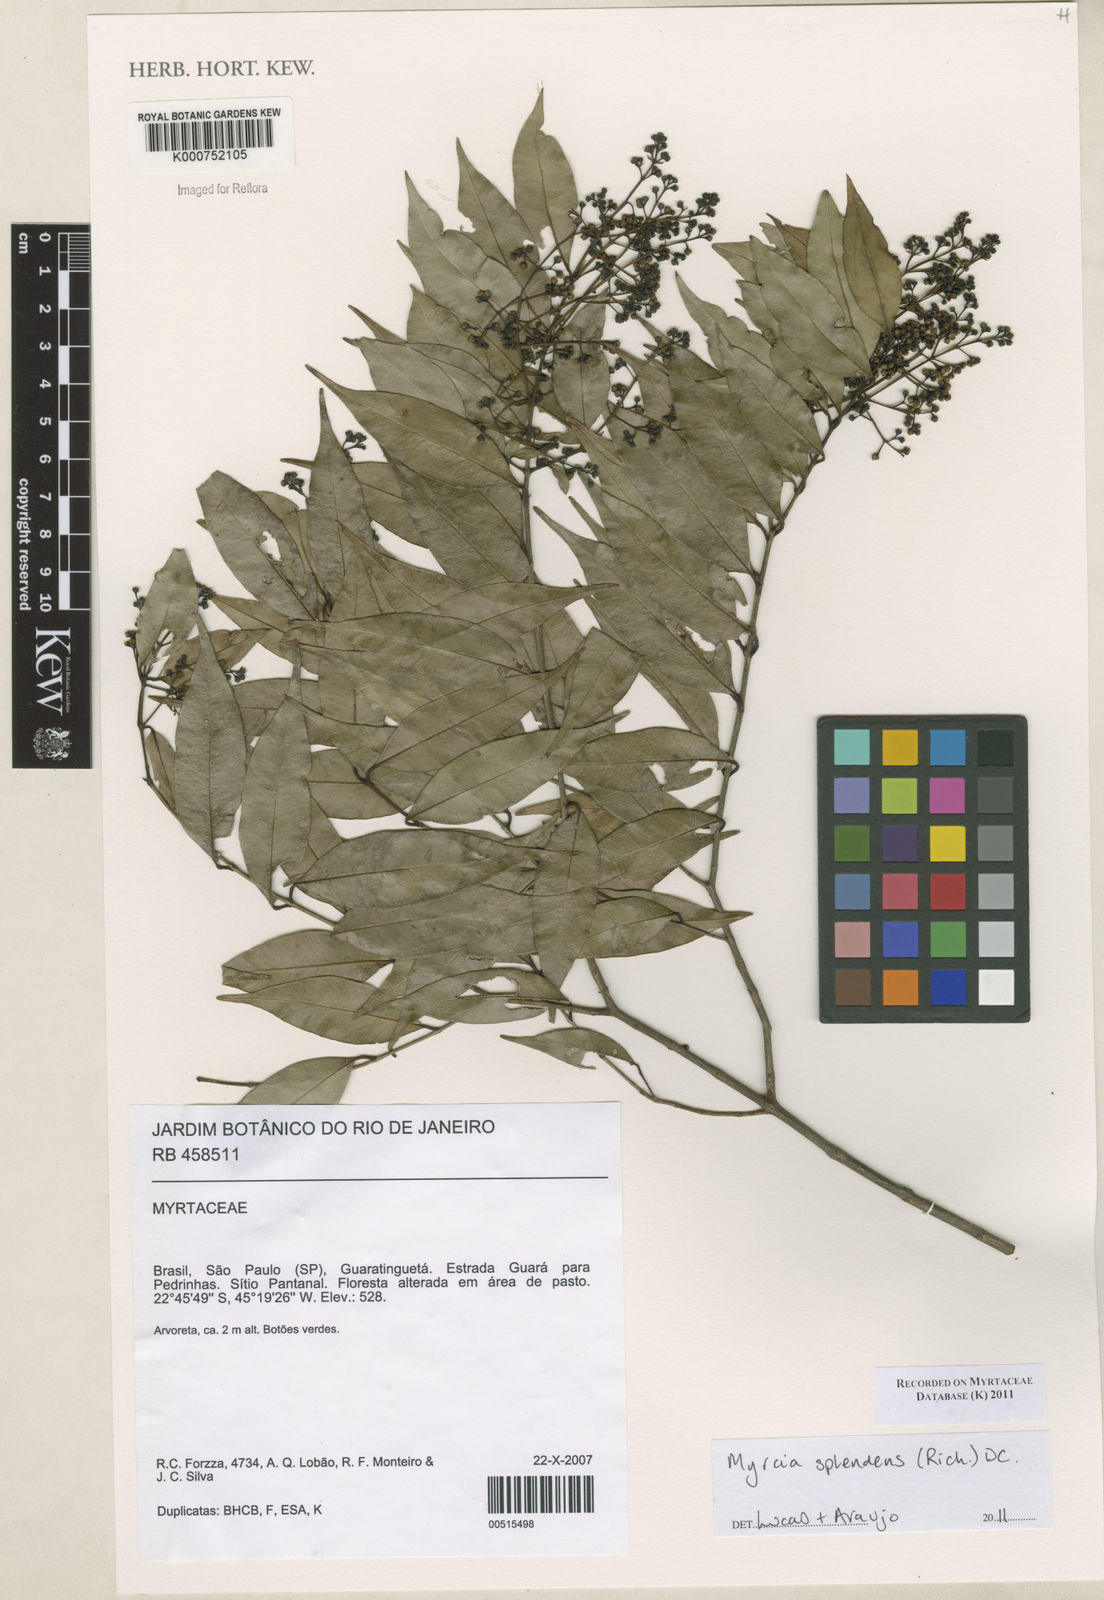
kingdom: Plantae
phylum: Tracheophyta
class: Magnoliopsida
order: Myrtales
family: Myrtaceae
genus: Myrcia
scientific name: Myrcia splendens
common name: Surinam cherry
